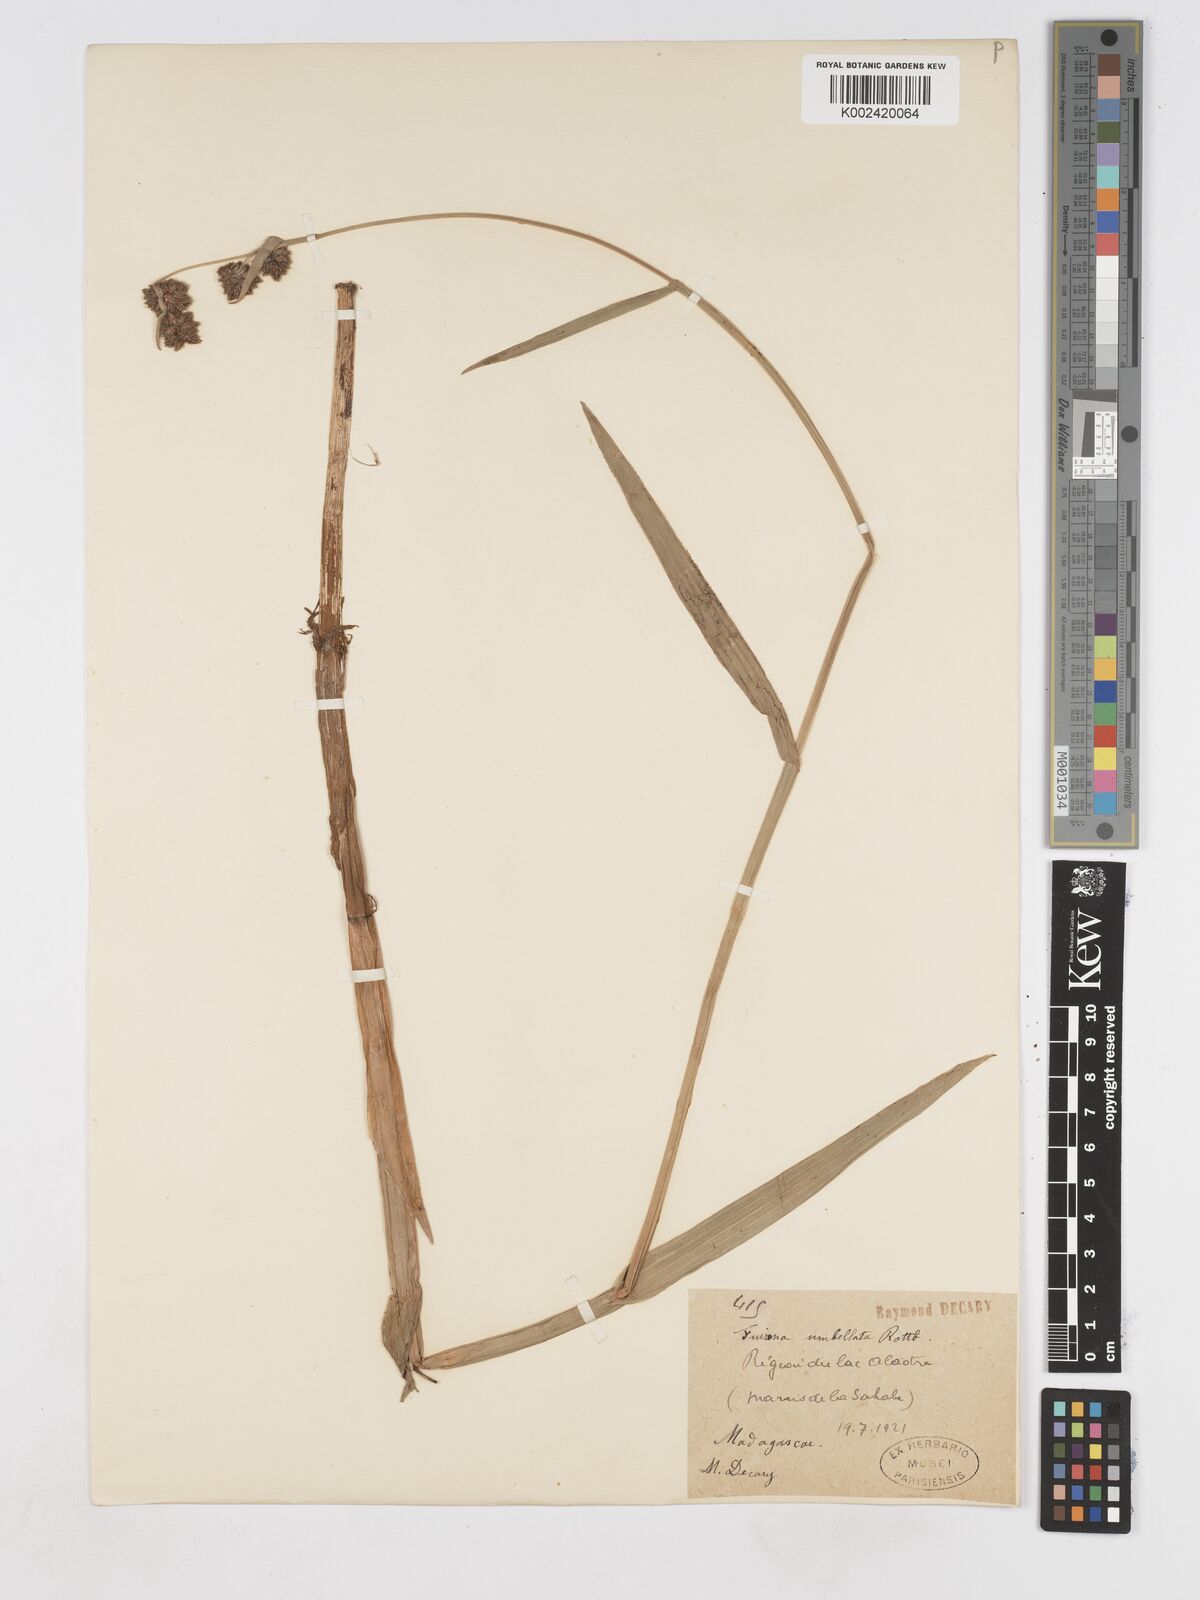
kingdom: Plantae
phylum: Tracheophyta
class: Liliopsida
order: Poales
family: Cyperaceae
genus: Fuirena
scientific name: Fuirena umbellata
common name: Yefen
